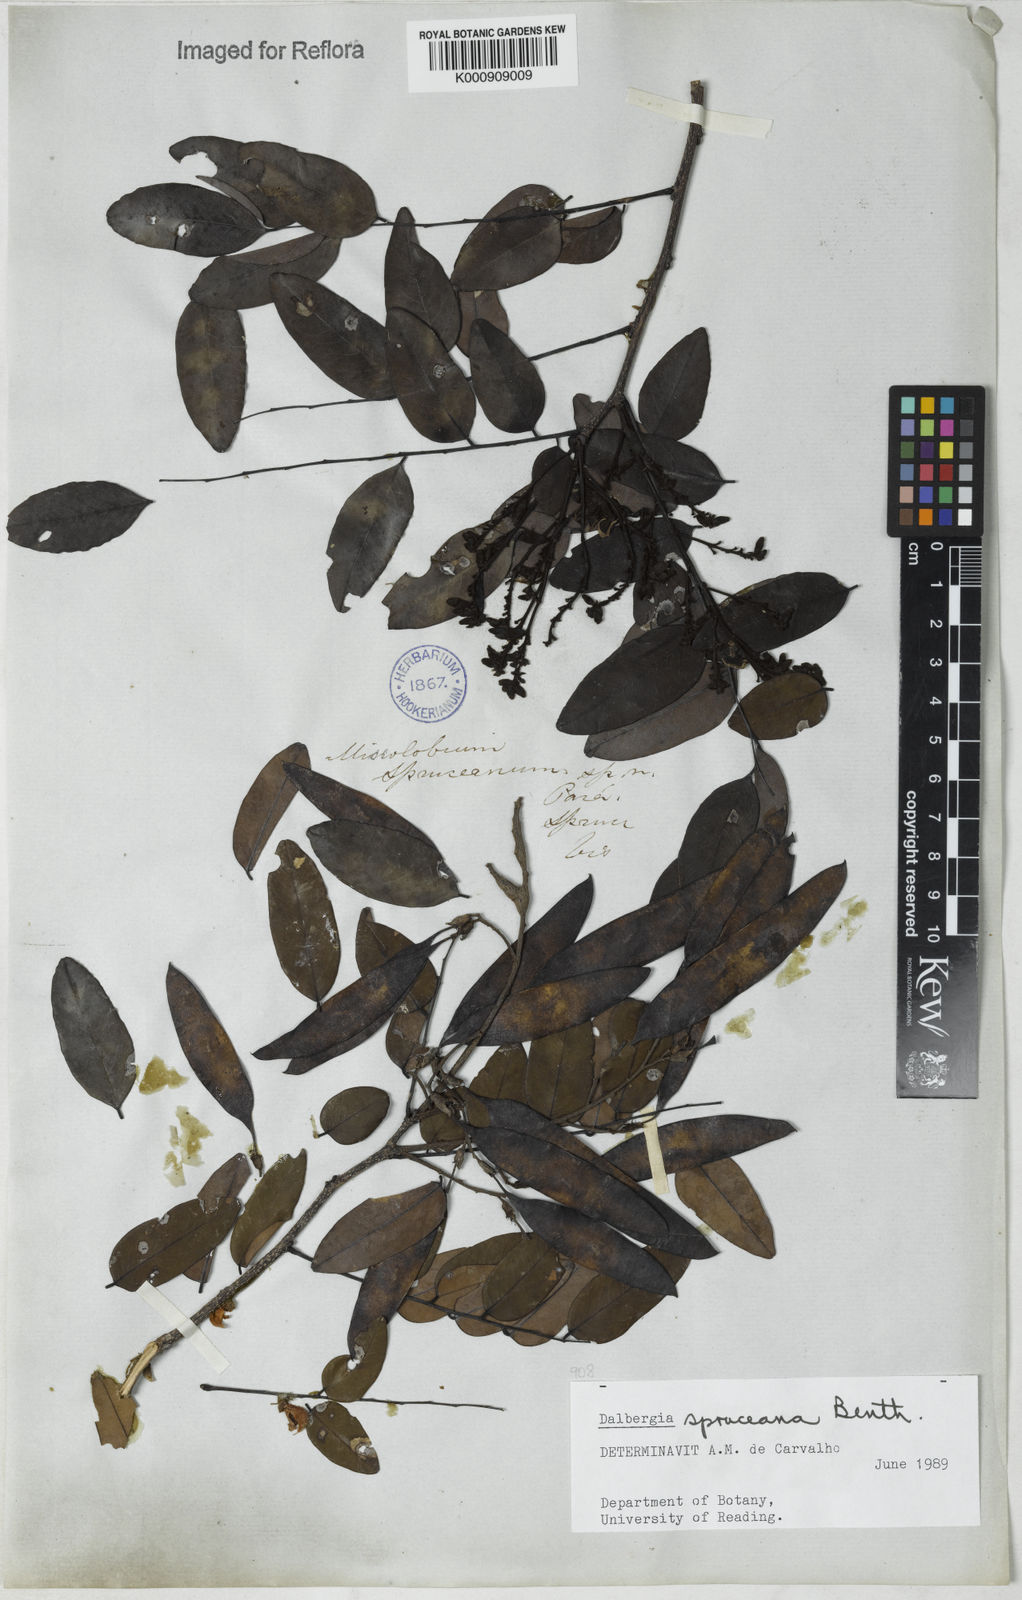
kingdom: Plantae
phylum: Tracheophyta
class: Magnoliopsida
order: Fabales
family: Fabaceae
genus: Dalbergia
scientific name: Dalbergia spruceana
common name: Amazon rosewood
